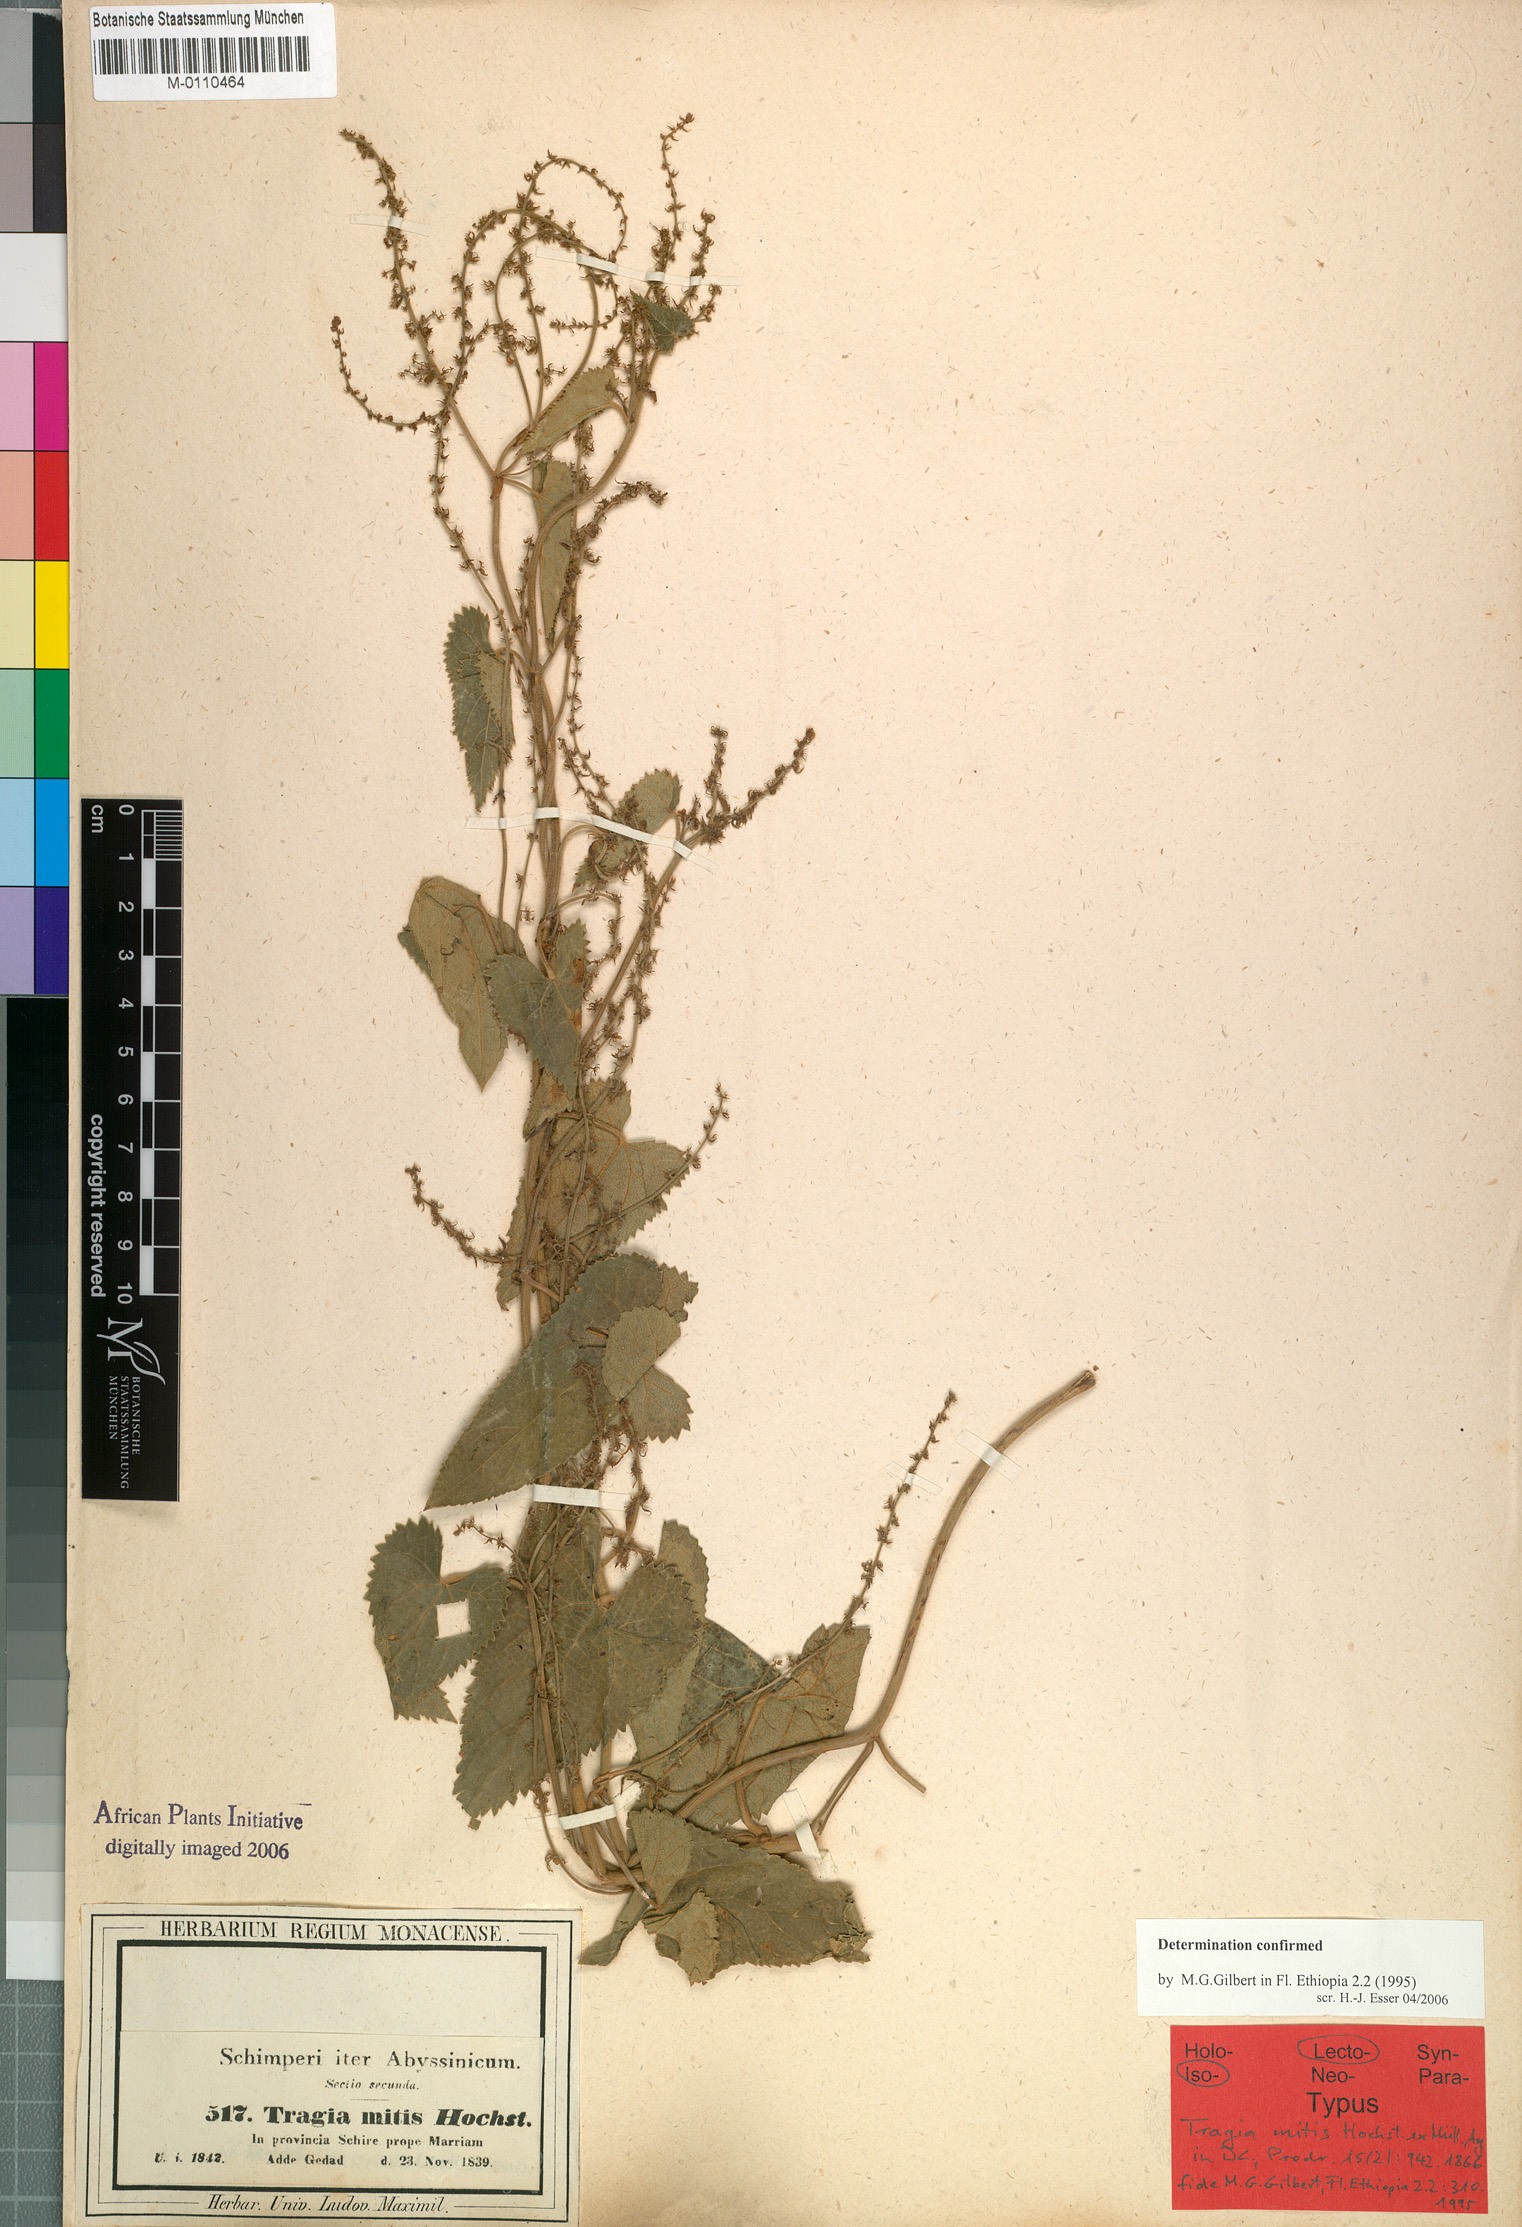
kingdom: Plantae
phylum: Tracheophyta
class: Magnoliopsida
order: Malpighiales
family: Euphorbiaceae
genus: Tragia
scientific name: Tragia mitis
